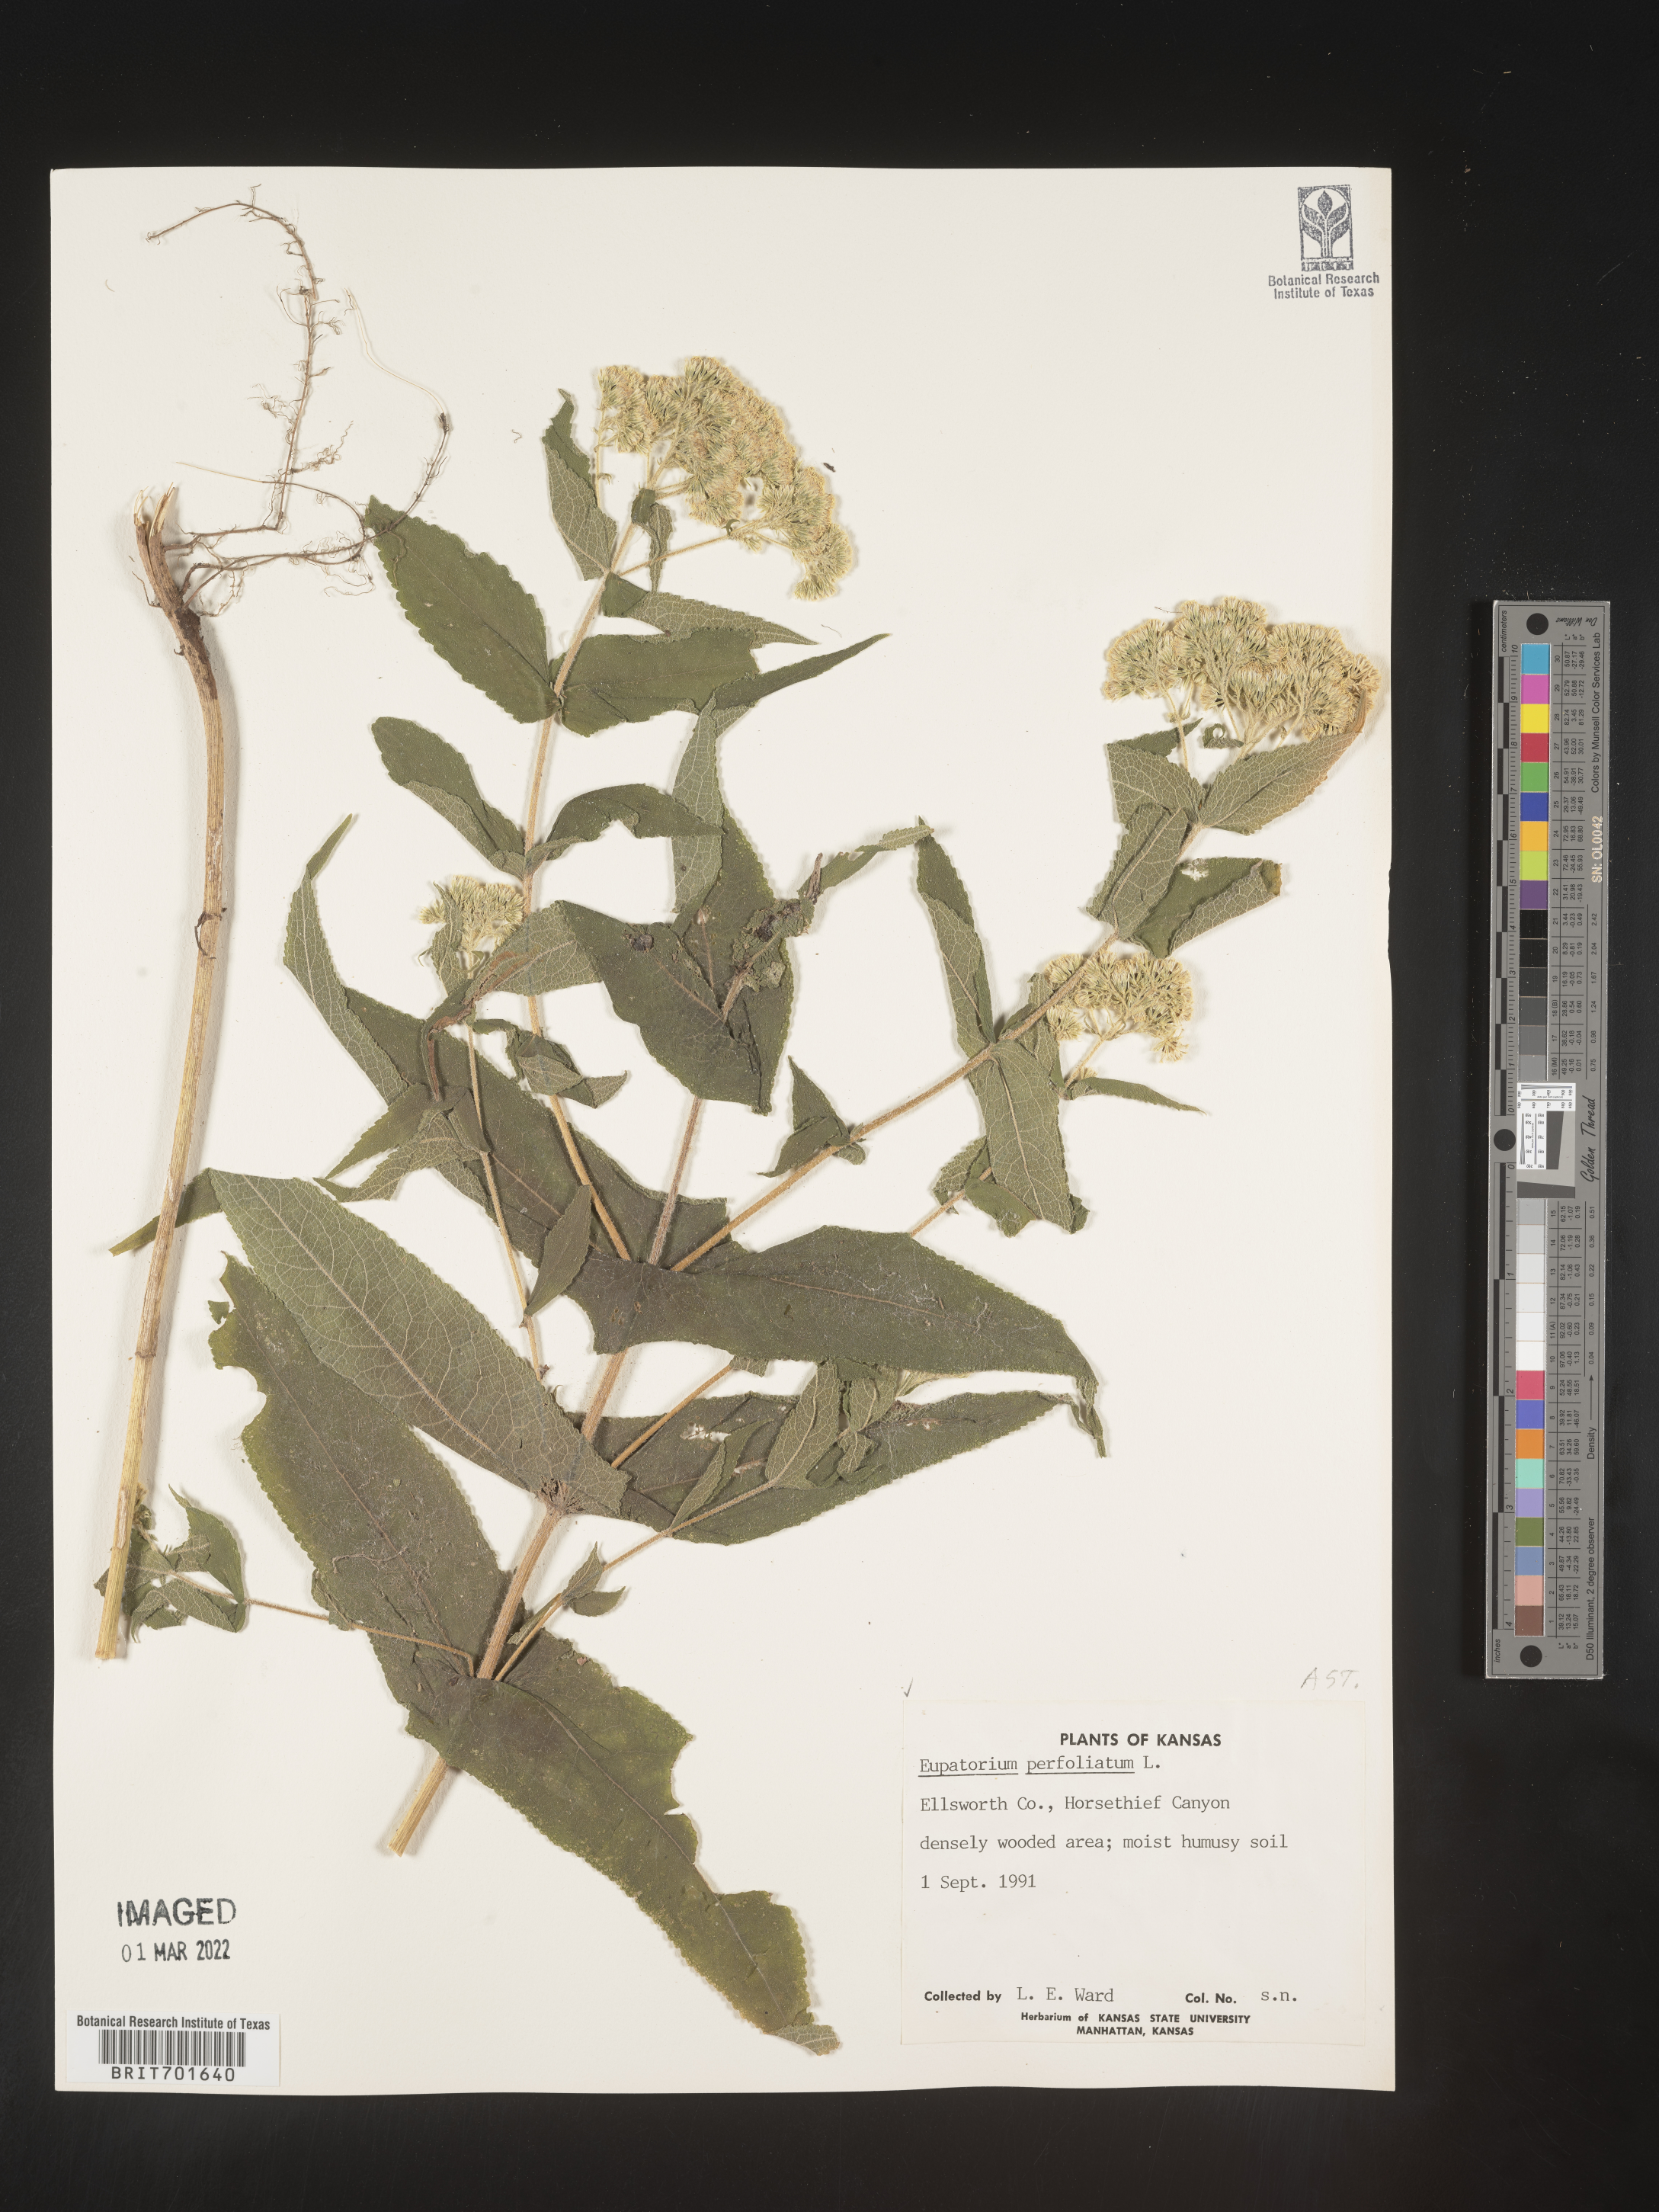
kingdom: Plantae
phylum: Tracheophyta
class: Magnoliopsida
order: Asterales
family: Asteraceae
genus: Eupatorium
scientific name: Eupatorium perfoliatum
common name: Boneset
